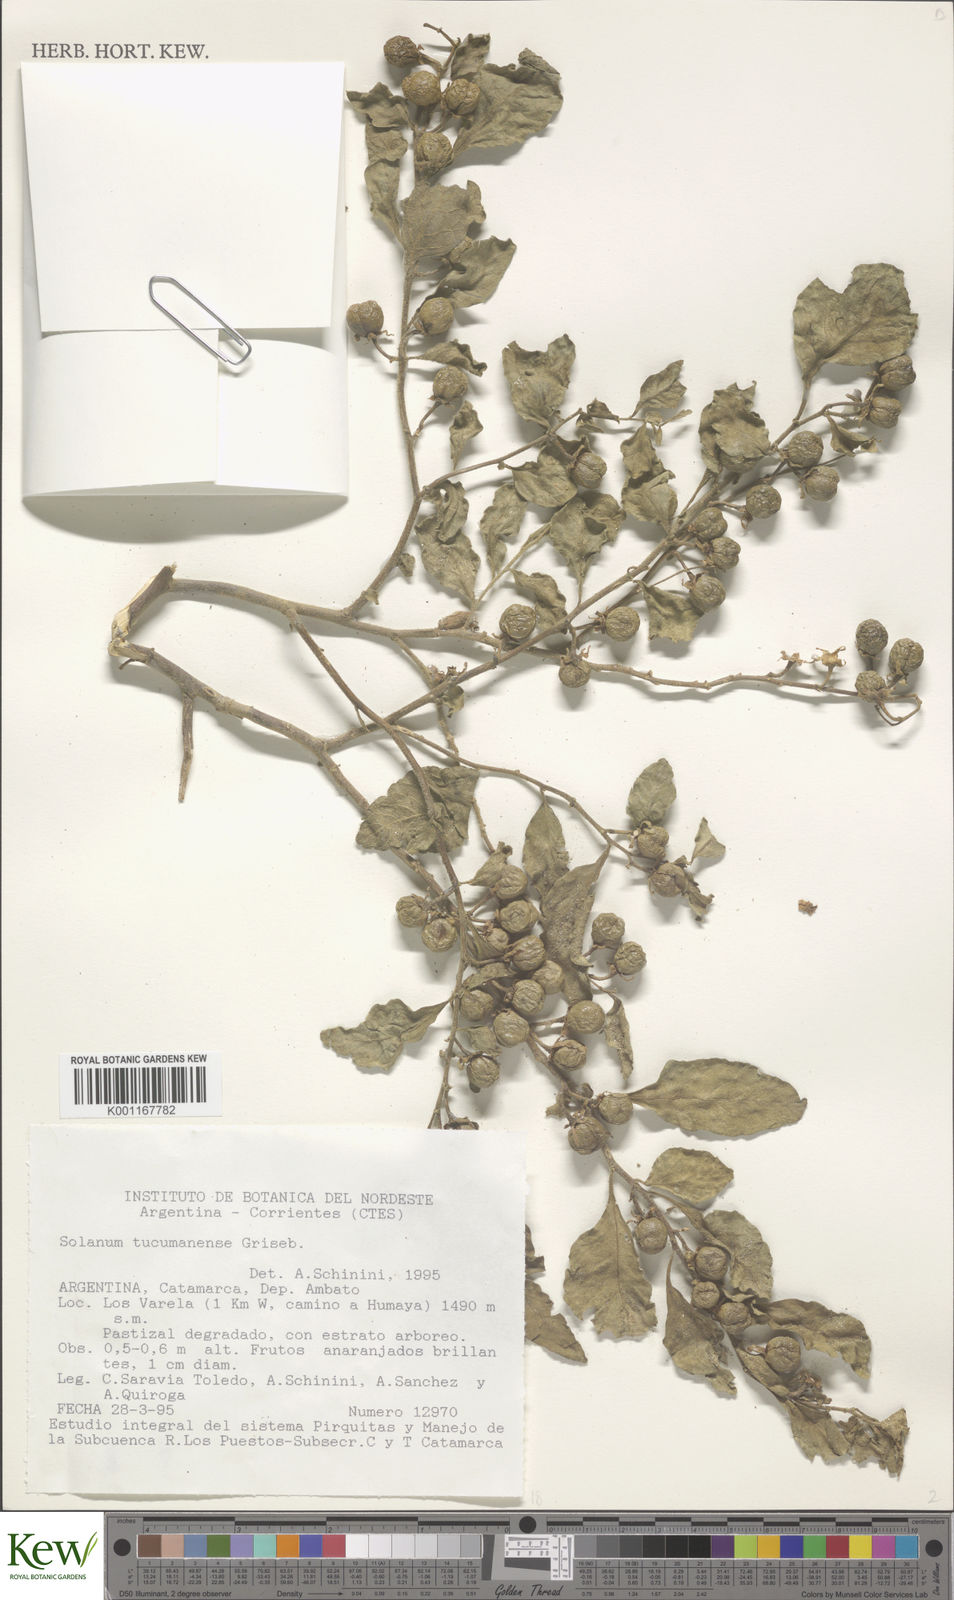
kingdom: Plantae
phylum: Tracheophyta
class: Magnoliopsida
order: Solanales
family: Solanaceae
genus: Solanum
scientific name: Solanum pseudocapsicum
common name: Jerusalem cherry
